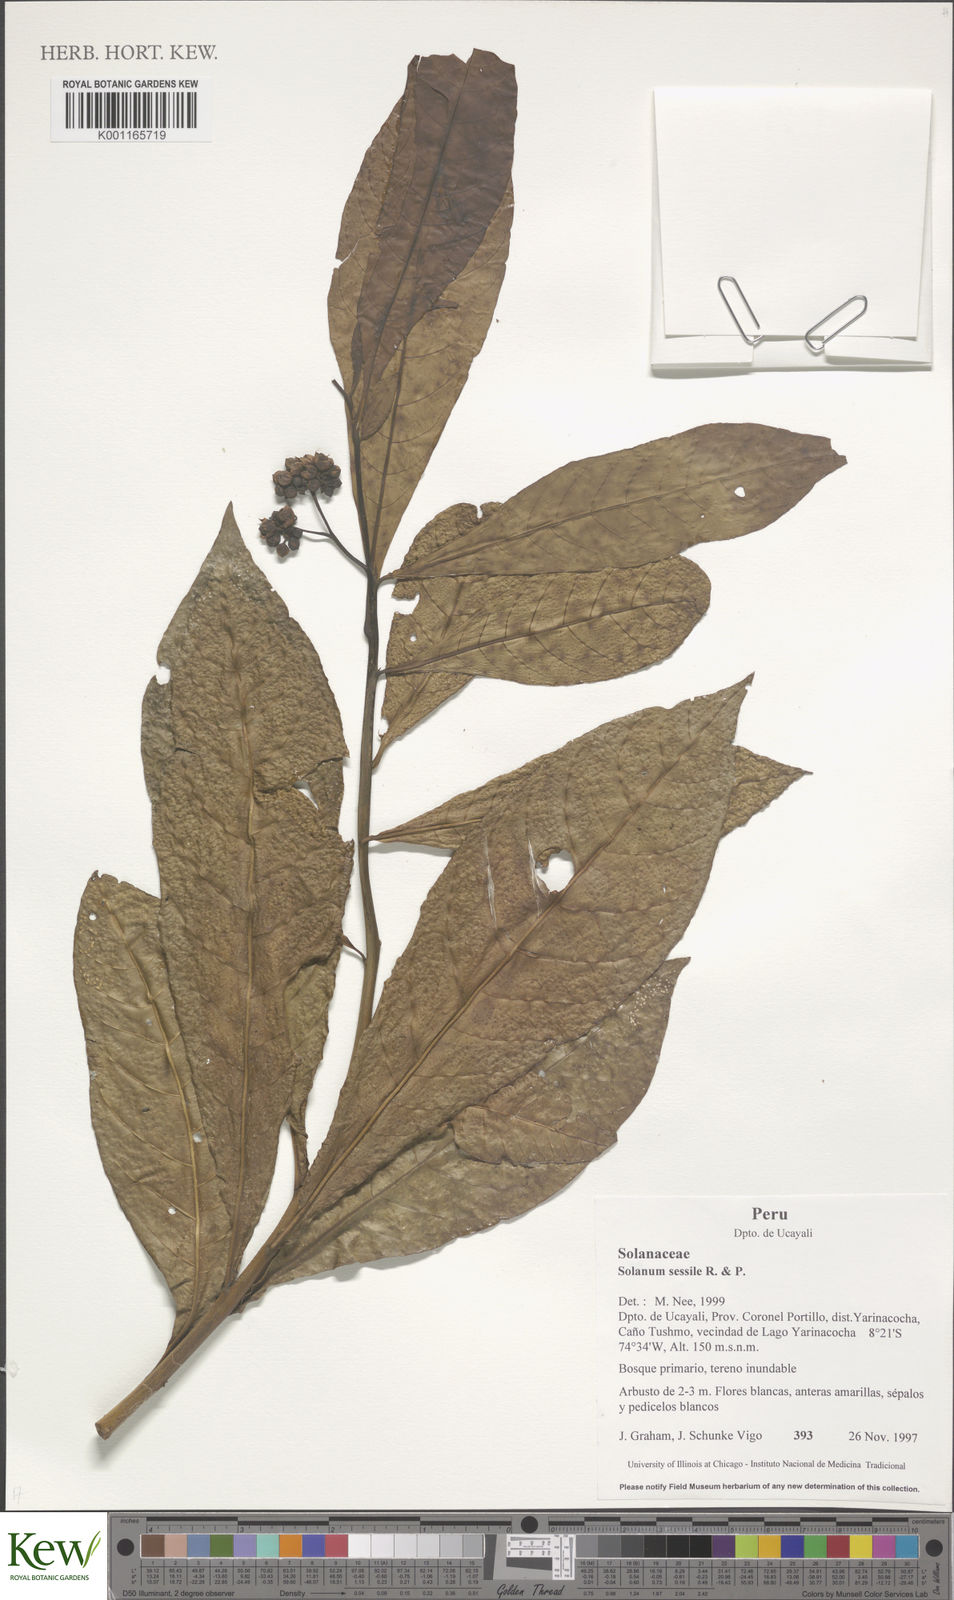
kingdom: Plantae
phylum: Tracheophyta
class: Magnoliopsida
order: Solanales
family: Solanaceae
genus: Solanum
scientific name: Solanum sessile
